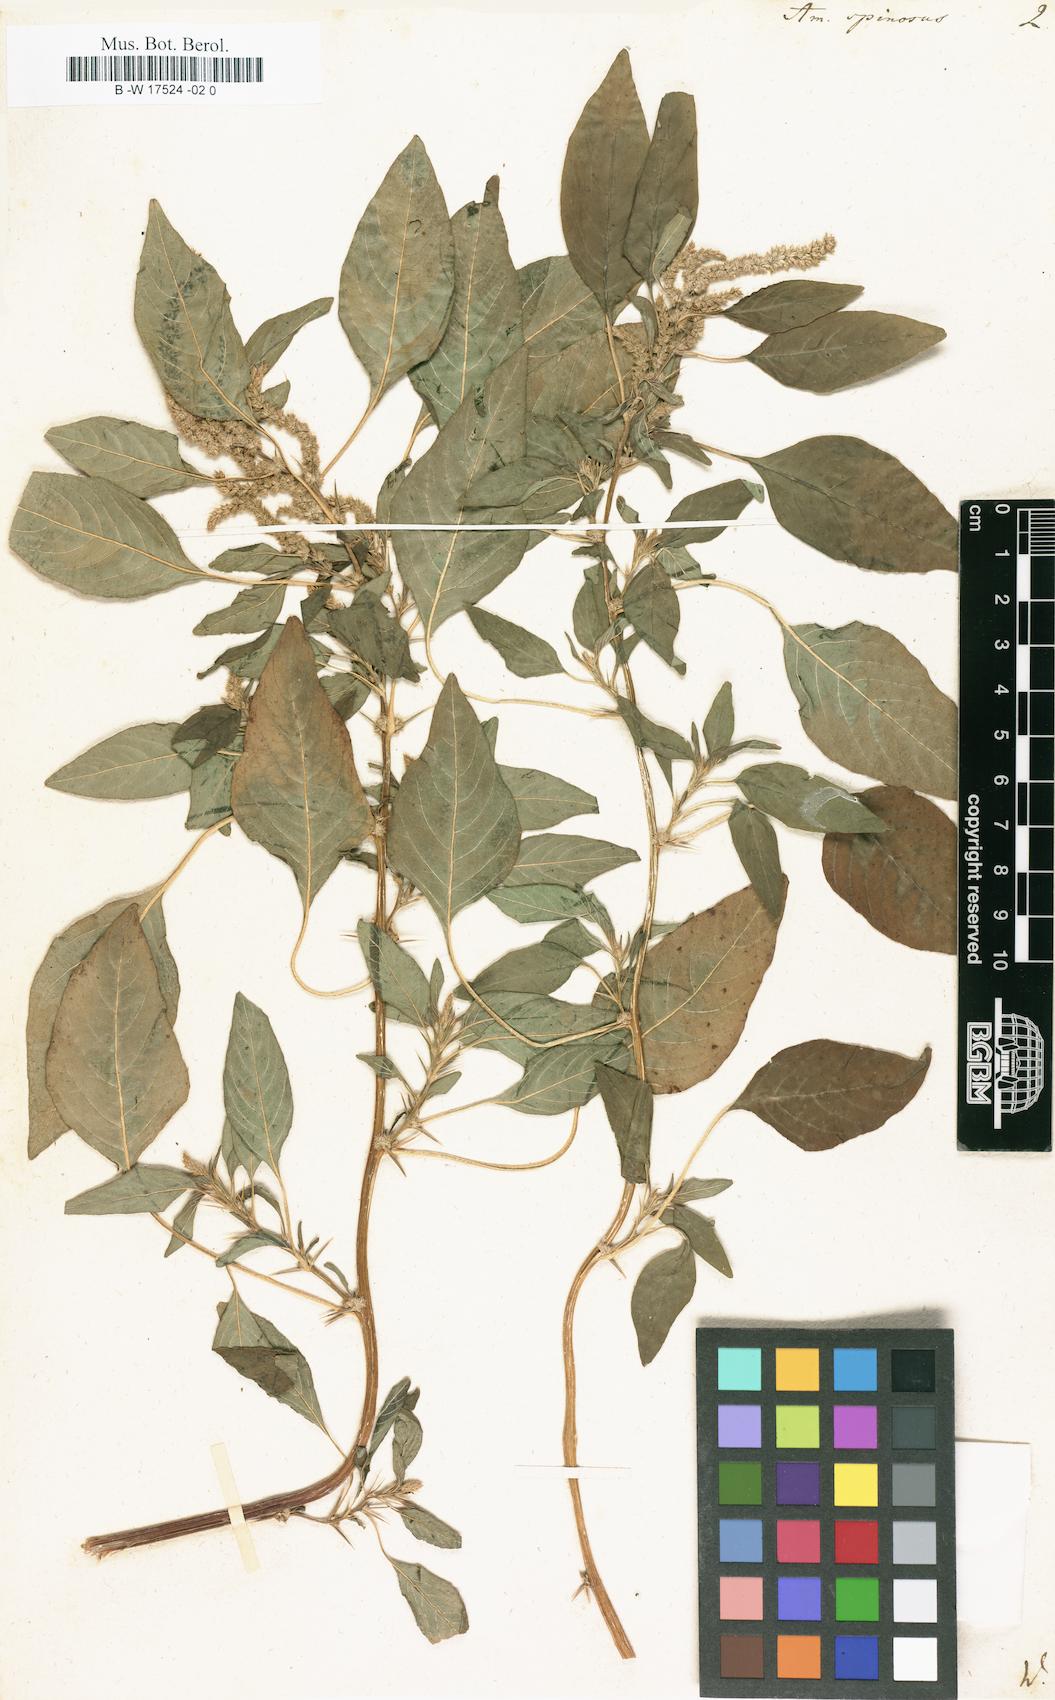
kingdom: Plantae
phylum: Tracheophyta
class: Magnoliopsida
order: Caryophyllales
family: Amaranthaceae
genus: Amaranthus
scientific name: Amaranthus spinosus
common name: Spiny amaranth
